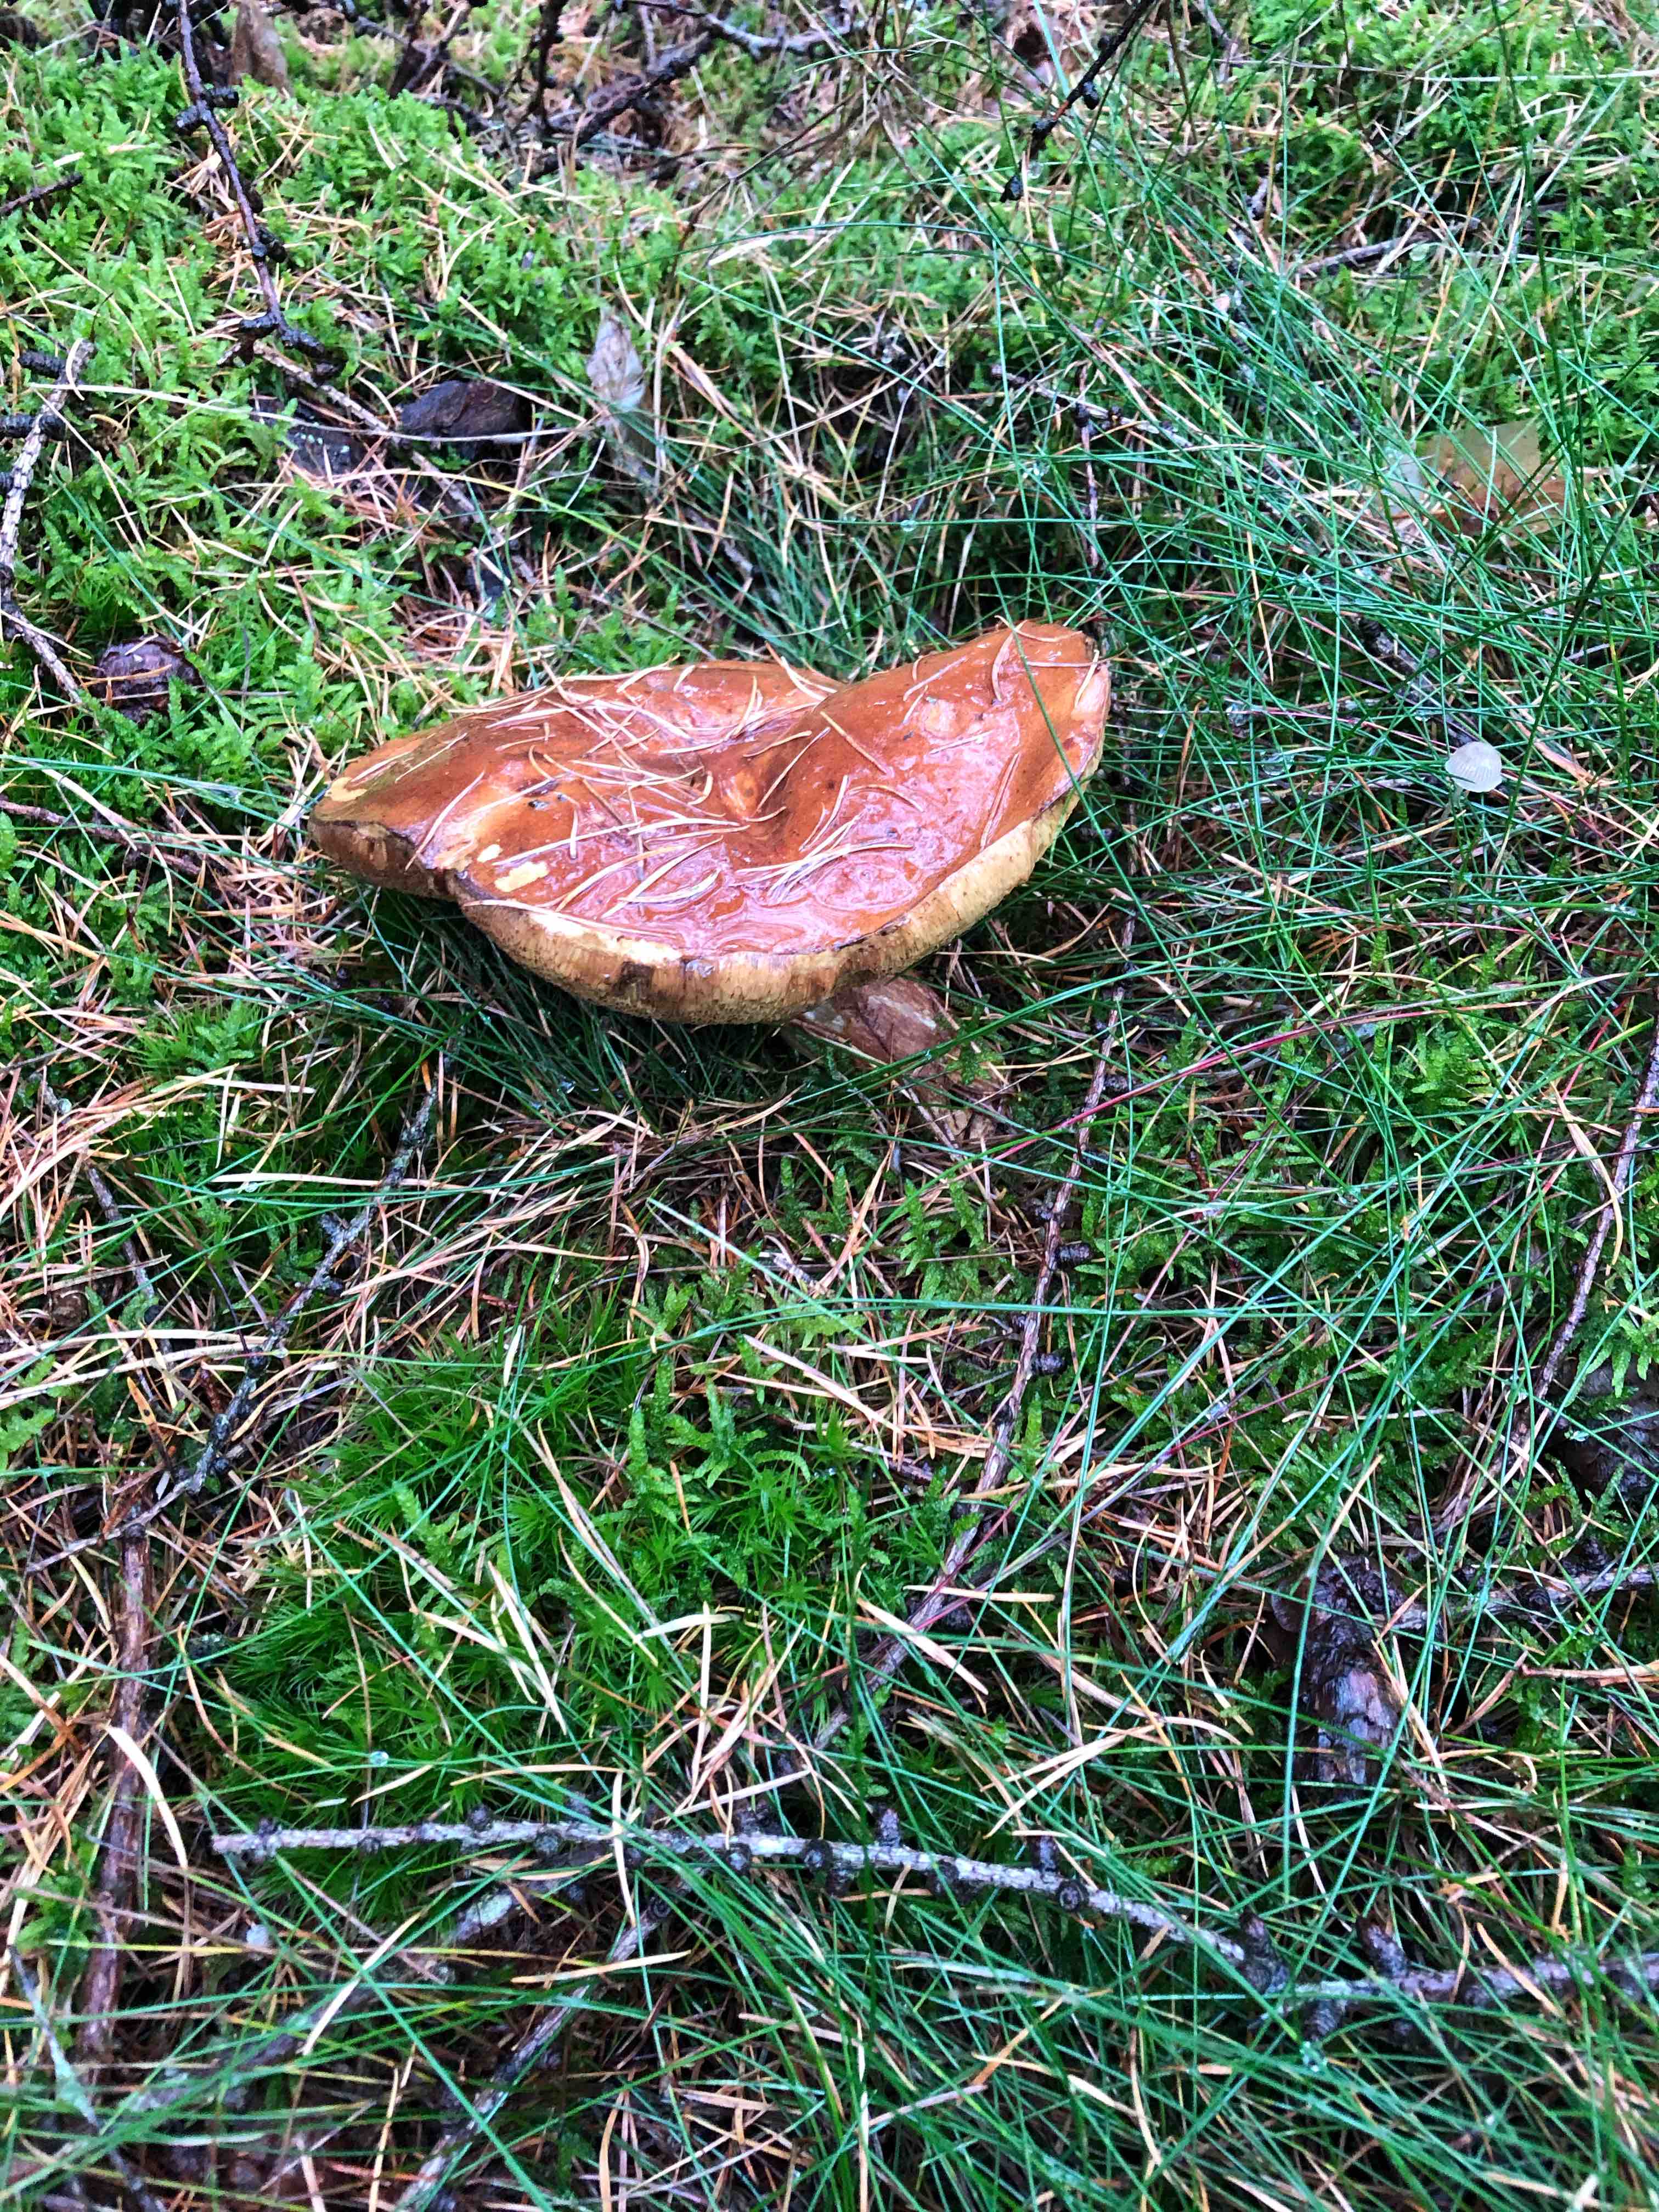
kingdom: Fungi
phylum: Basidiomycota
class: Agaricomycetes
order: Boletales
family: Boletaceae
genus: Imleria
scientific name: Imleria badia
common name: brunstokket rørhat
